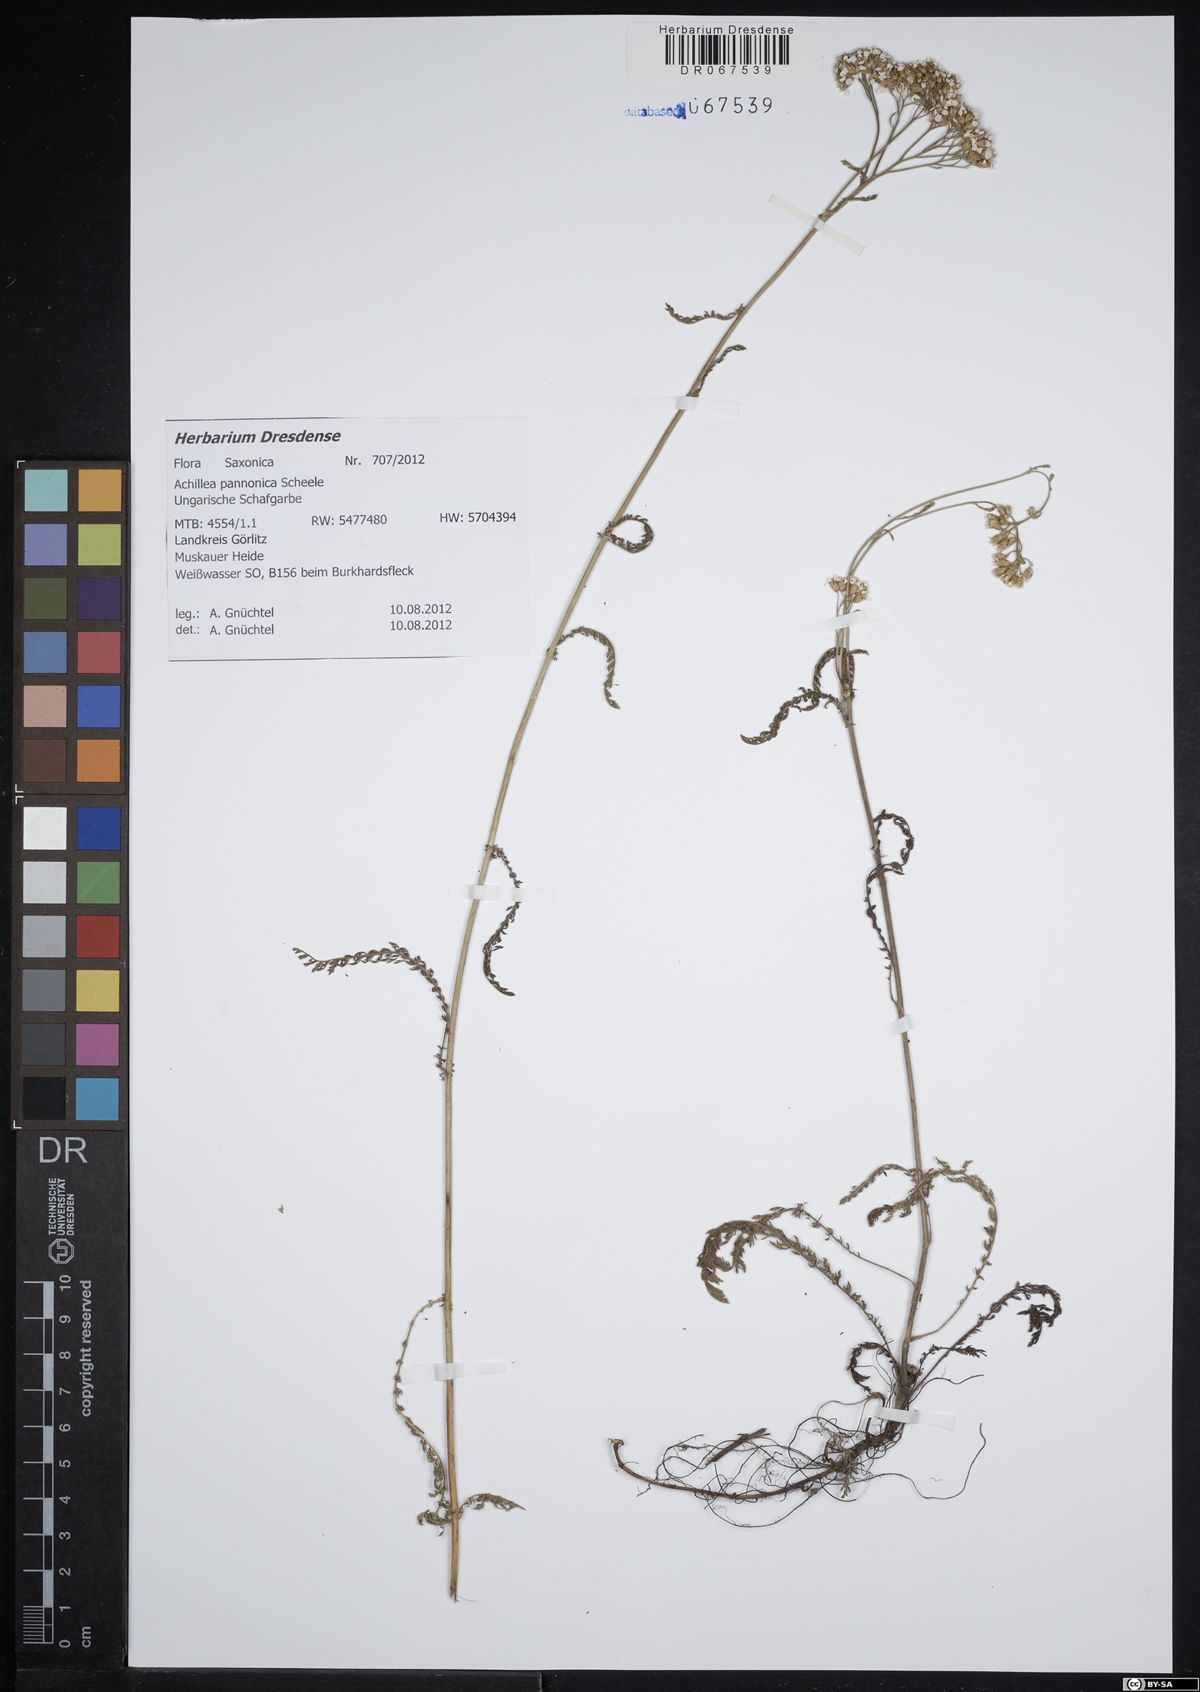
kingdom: Plantae
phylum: Tracheophyta
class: Magnoliopsida
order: Asterales
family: Asteraceae
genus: Achillea
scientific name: Achillea pannonica
